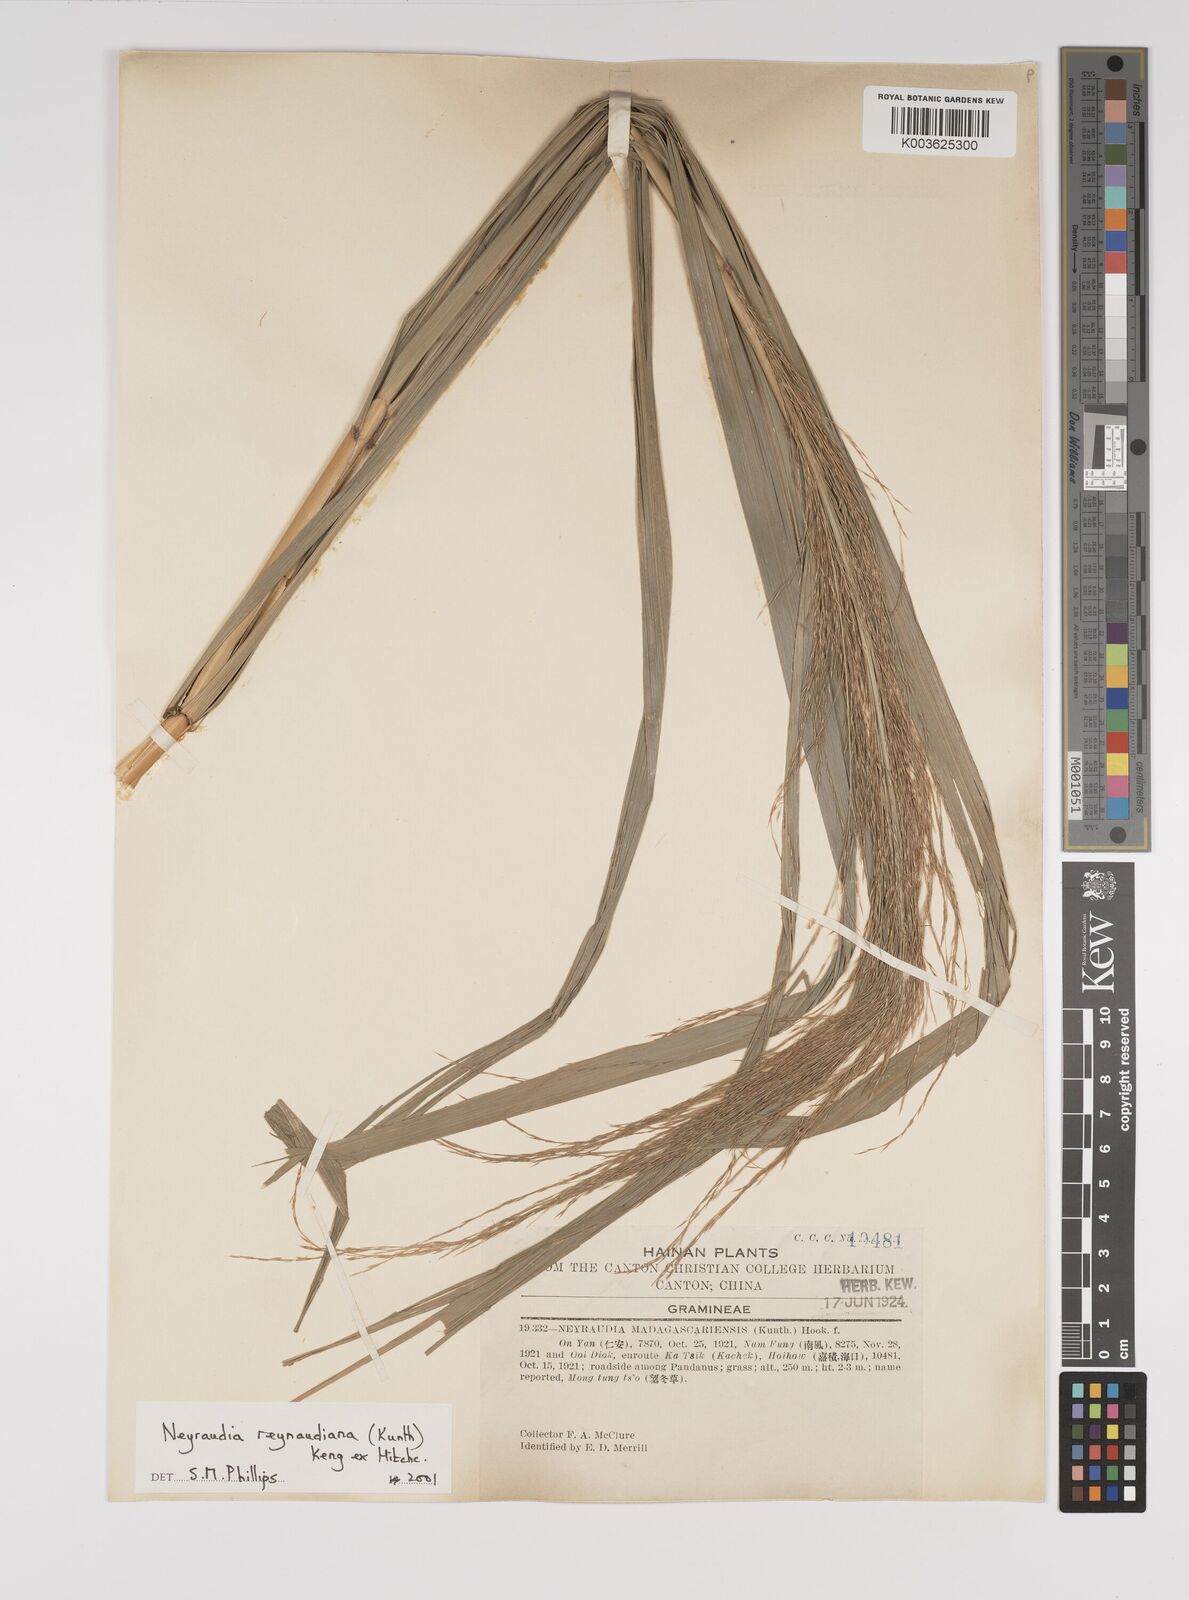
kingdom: Plantae
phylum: Tracheophyta
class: Liliopsida
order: Poales
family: Poaceae
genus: Neyraudia
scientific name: Neyraudia reynaudiana
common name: Silkreed
